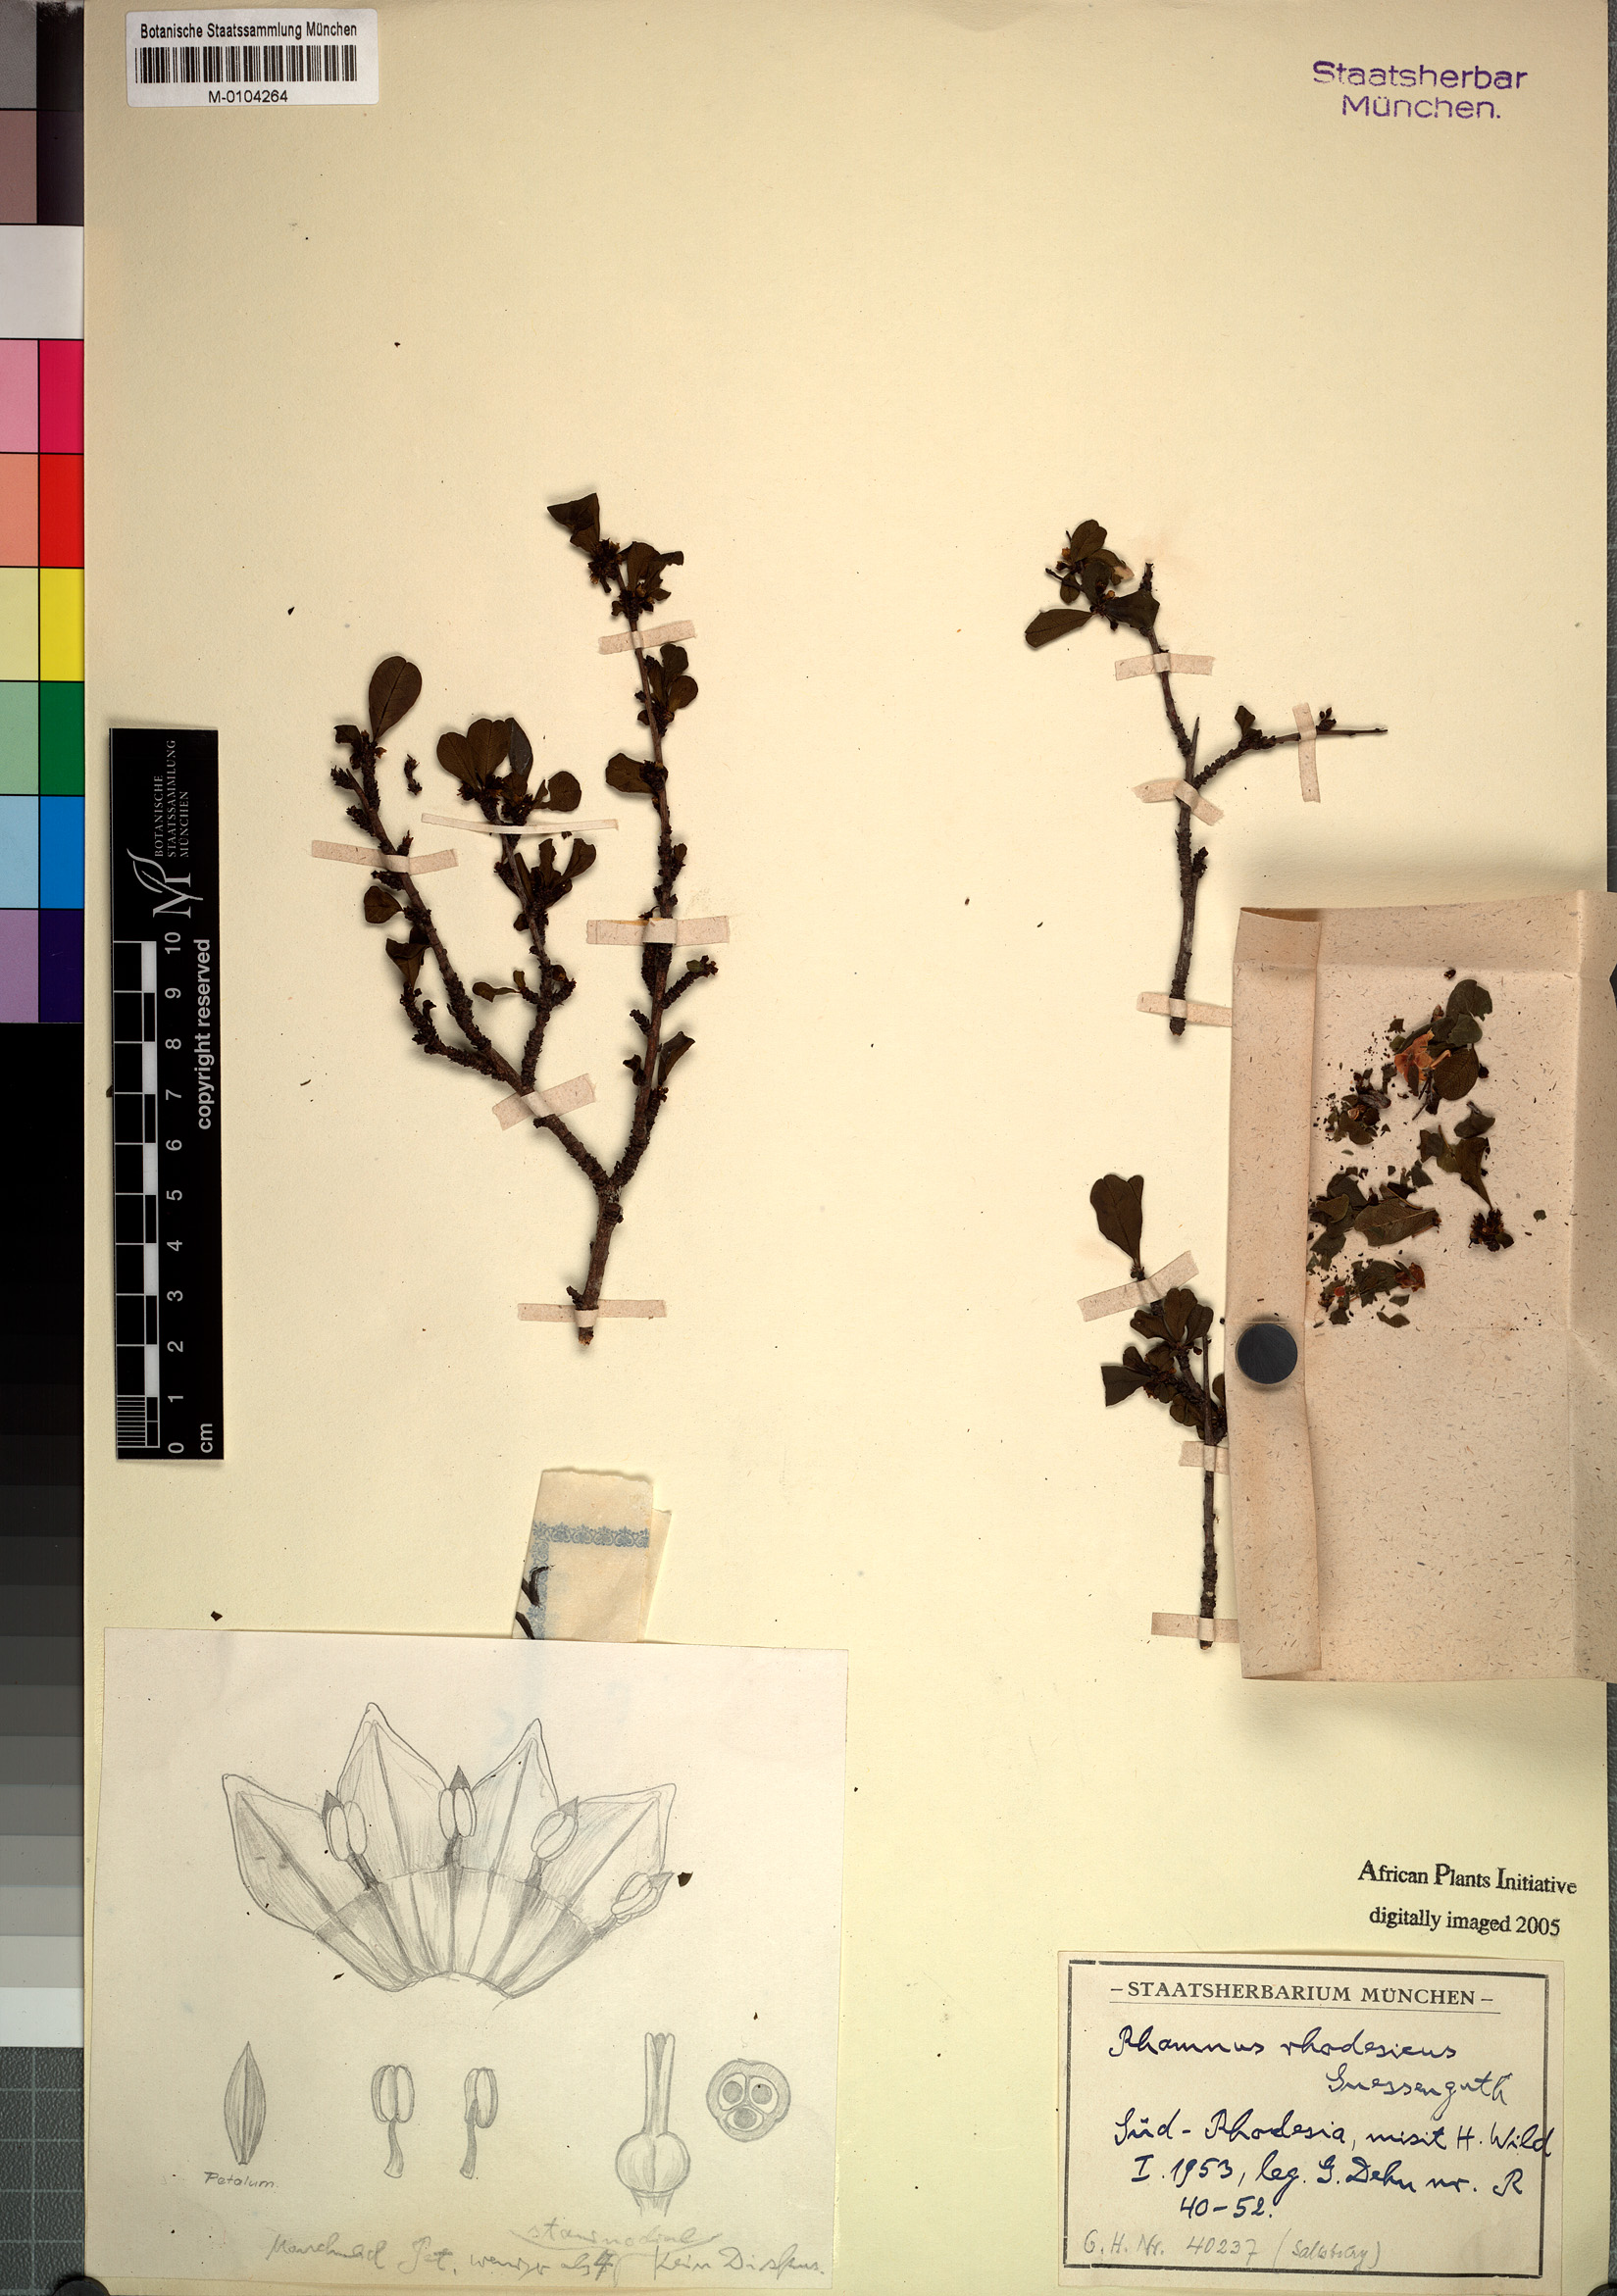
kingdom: Plantae
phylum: Tracheophyta
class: Magnoliopsida
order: Rosales
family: Rhamnaceae
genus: Rhamnus
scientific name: Rhamnus staddo
